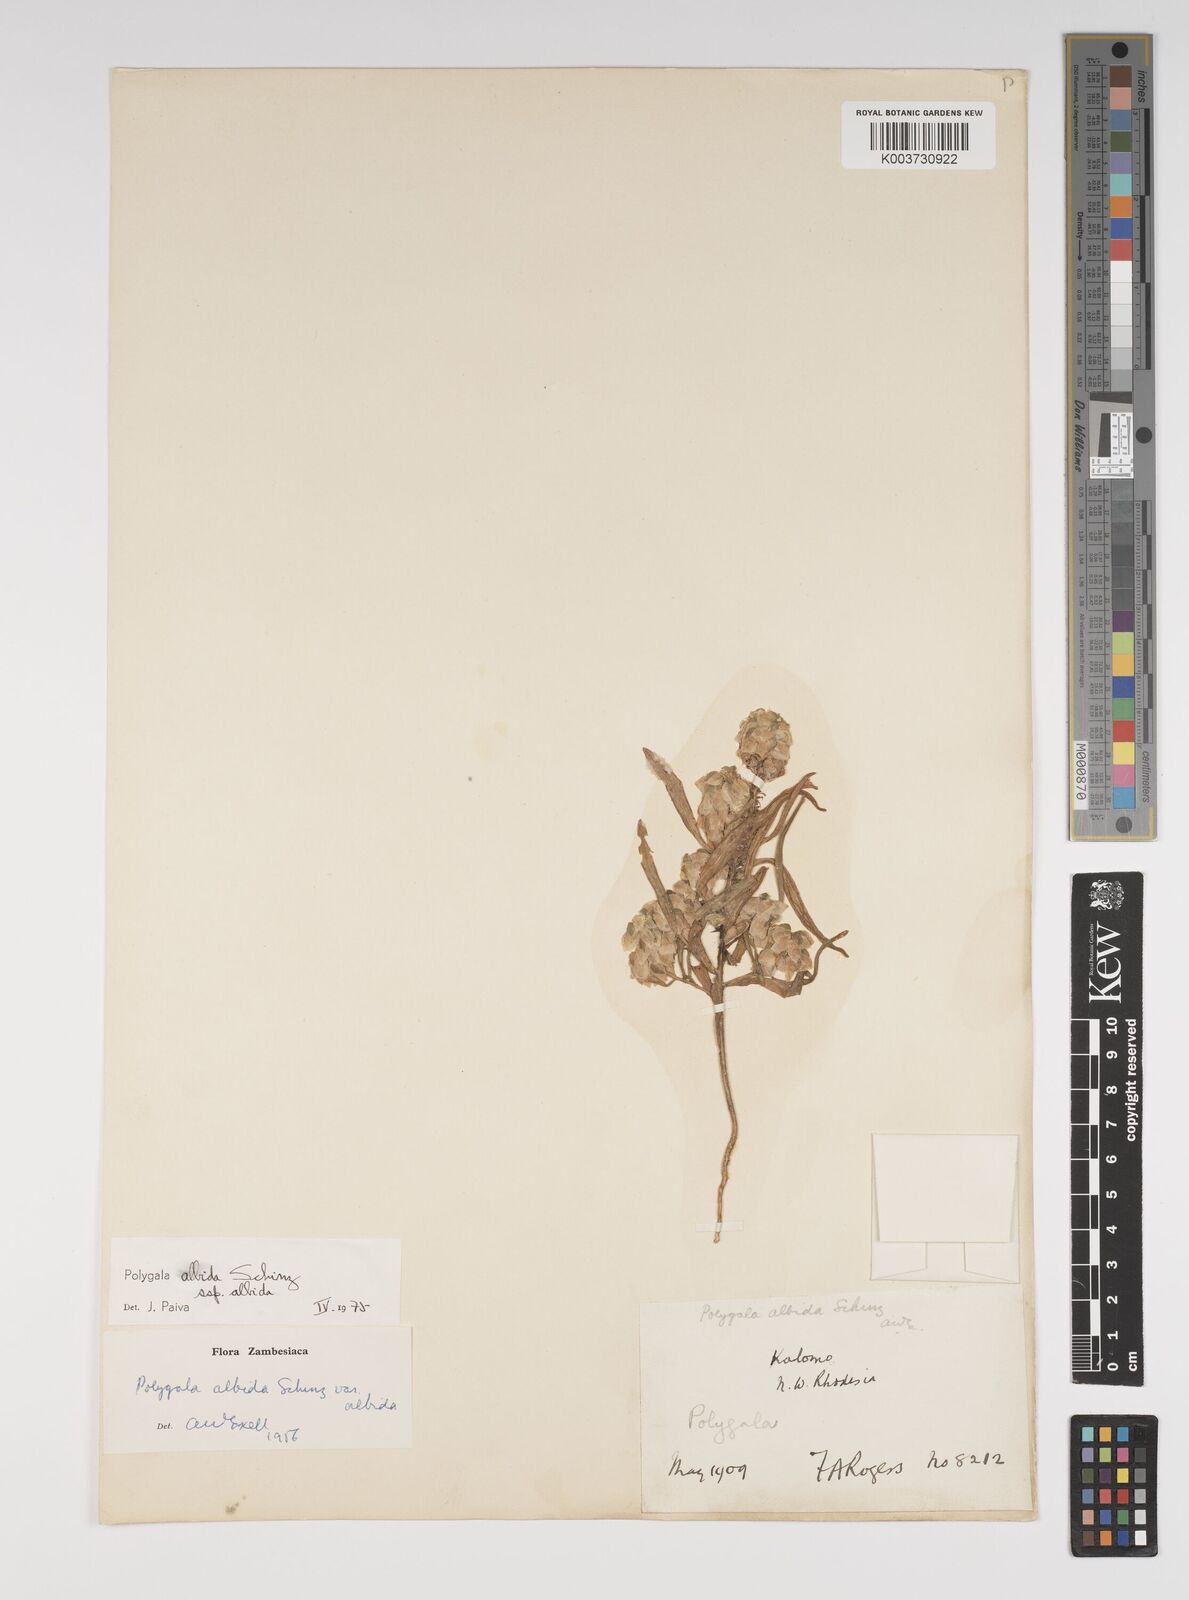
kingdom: Plantae
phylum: Tracheophyta
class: Magnoliopsida
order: Fabales
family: Polygalaceae
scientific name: Polygalaceae
